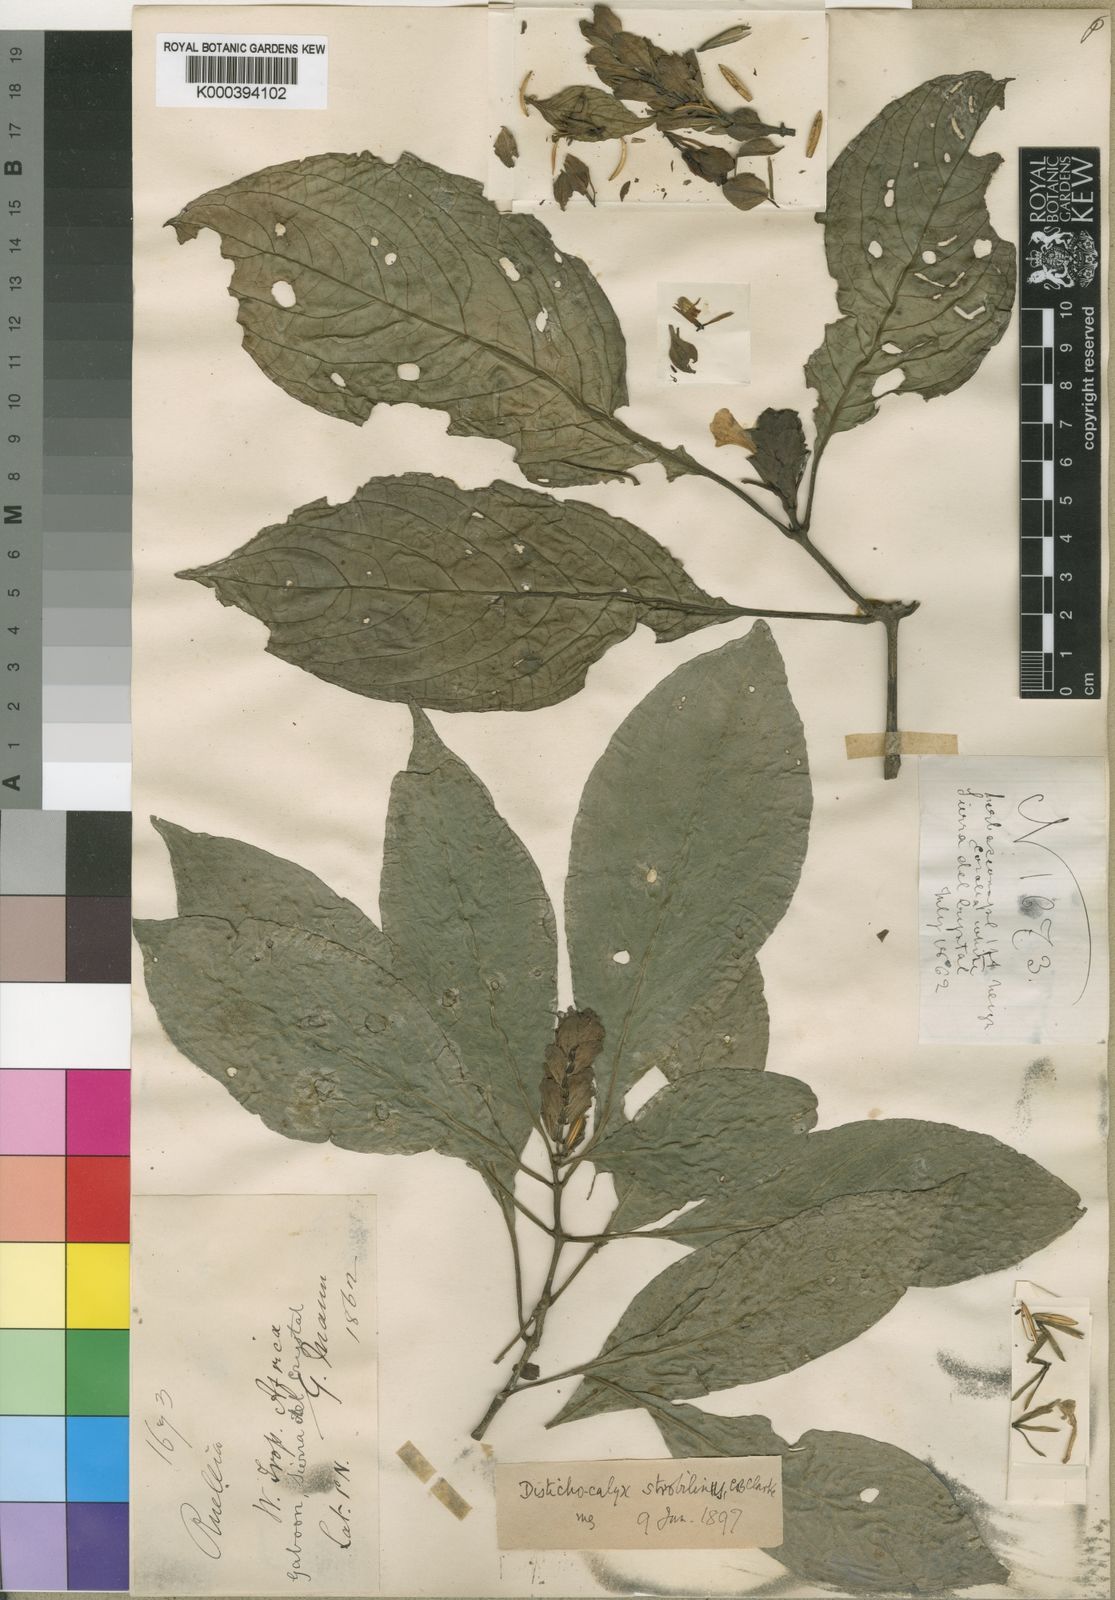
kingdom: Plantae
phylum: Tracheophyta
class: Magnoliopsida
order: Lamiales
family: Acanthaceae
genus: Dischistocalyx
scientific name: Dischistocalyx strobilinus
